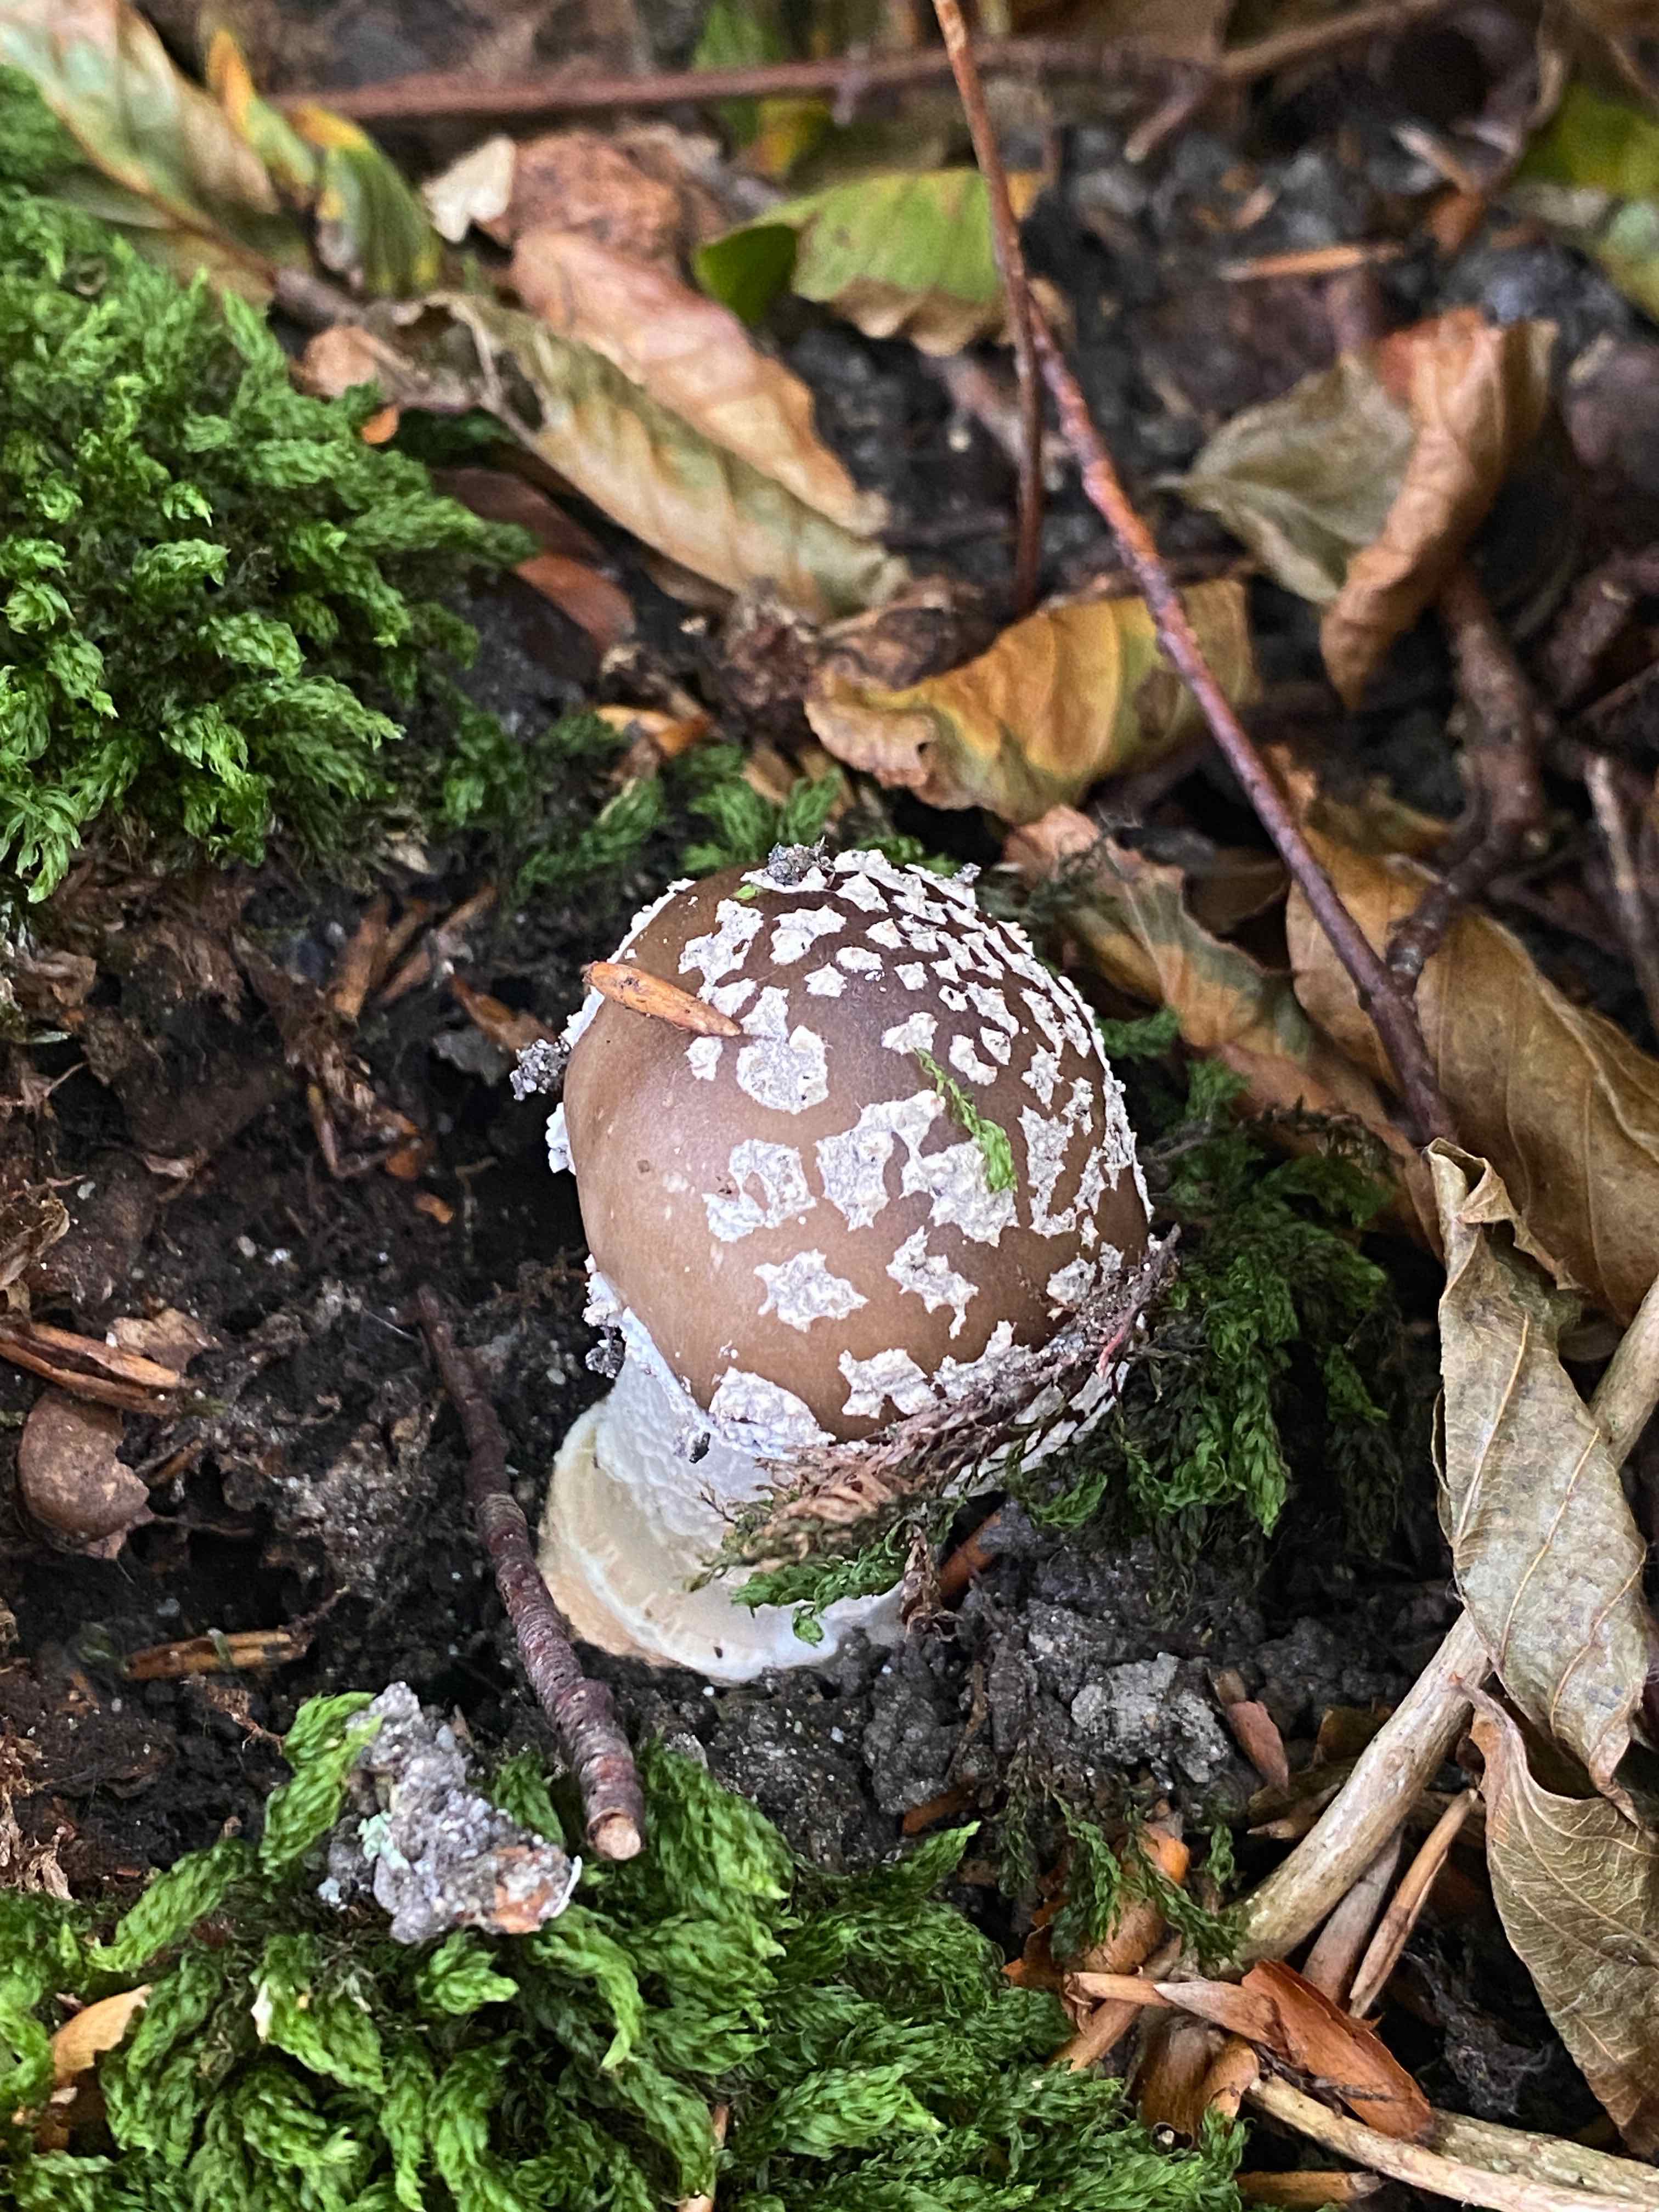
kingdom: Fungi
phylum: Basidiomycota
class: Agaricomycetes
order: Agaricales
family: Amanitaceae
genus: Amanita
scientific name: Amanita
